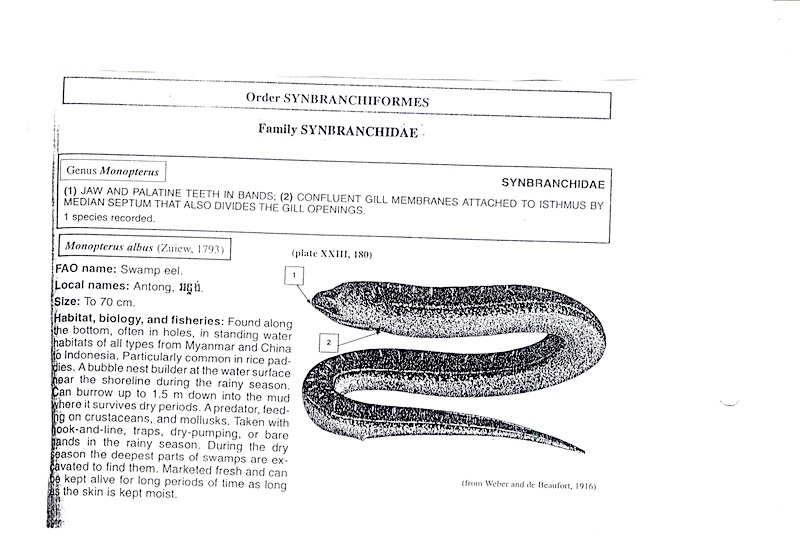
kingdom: Animalia
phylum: Chordata
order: Perciformes
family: Monodactylidae
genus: Monodactylus
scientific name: Monodactylus argenteus
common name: Silver moony
